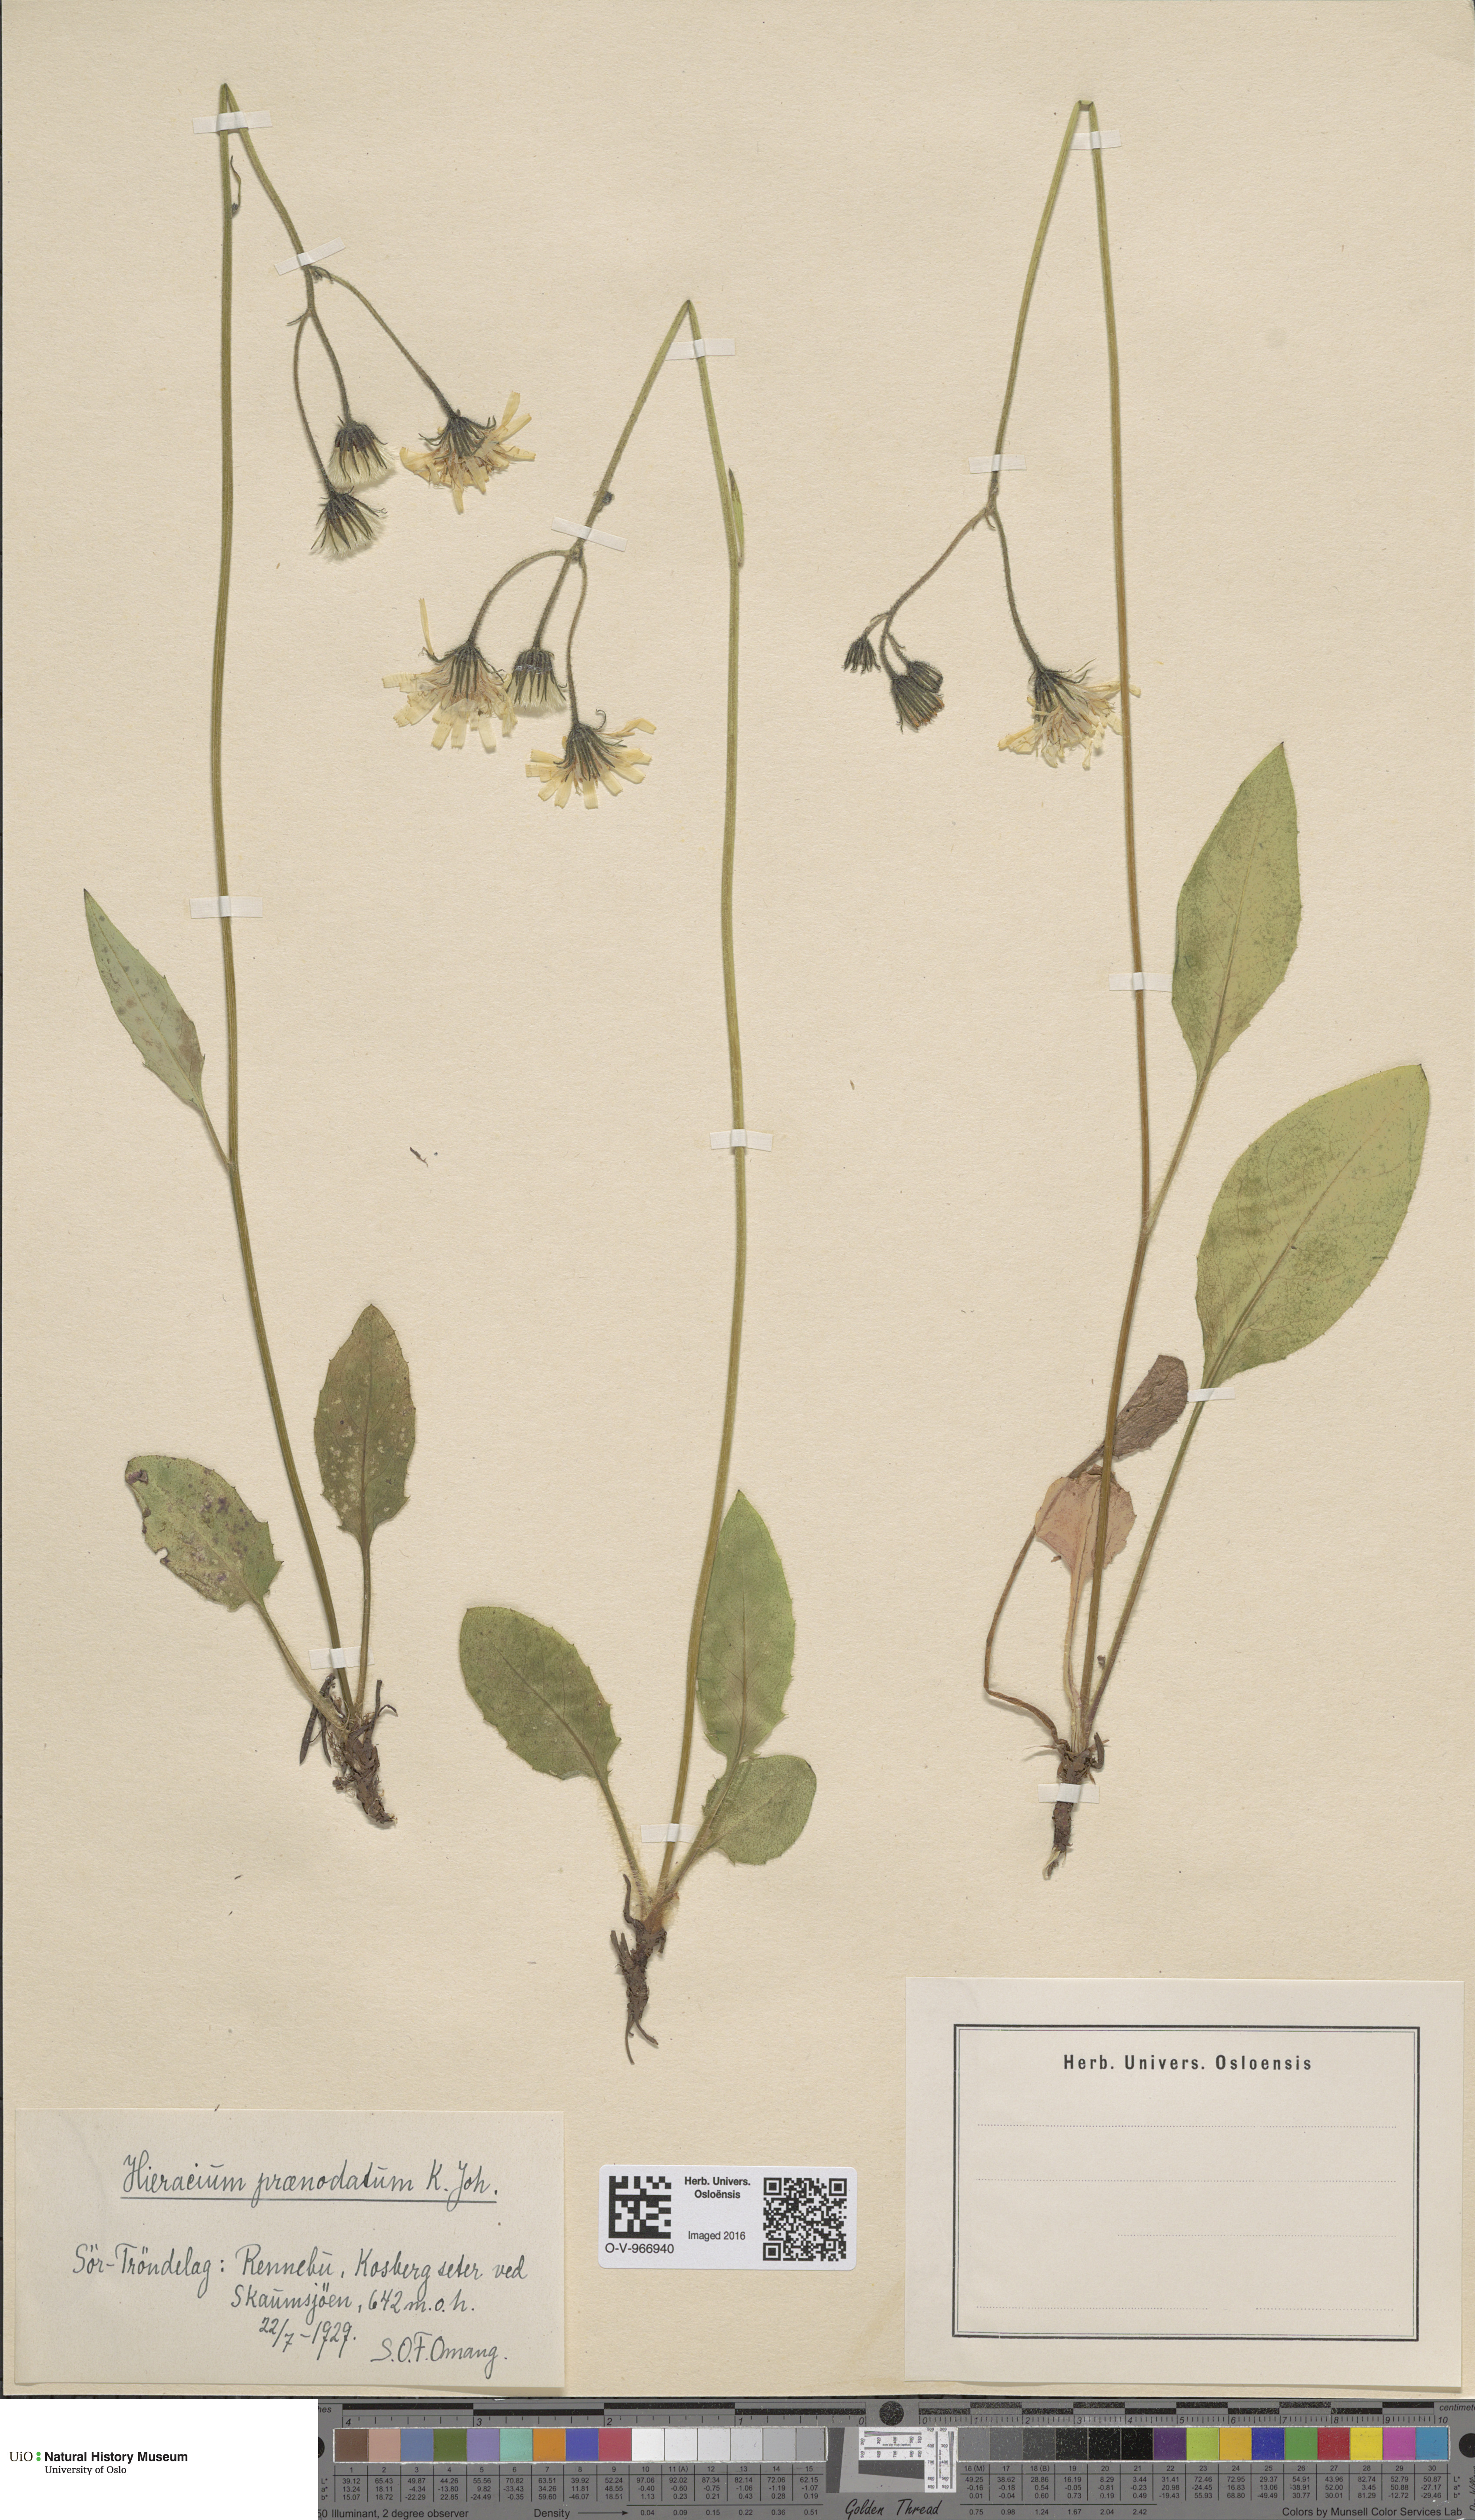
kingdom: Plantae
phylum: Tracheophyta
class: Magnoliopsida
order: Asterales
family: Asteraceae
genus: Hieracium
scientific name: Hieracium praenodatum
